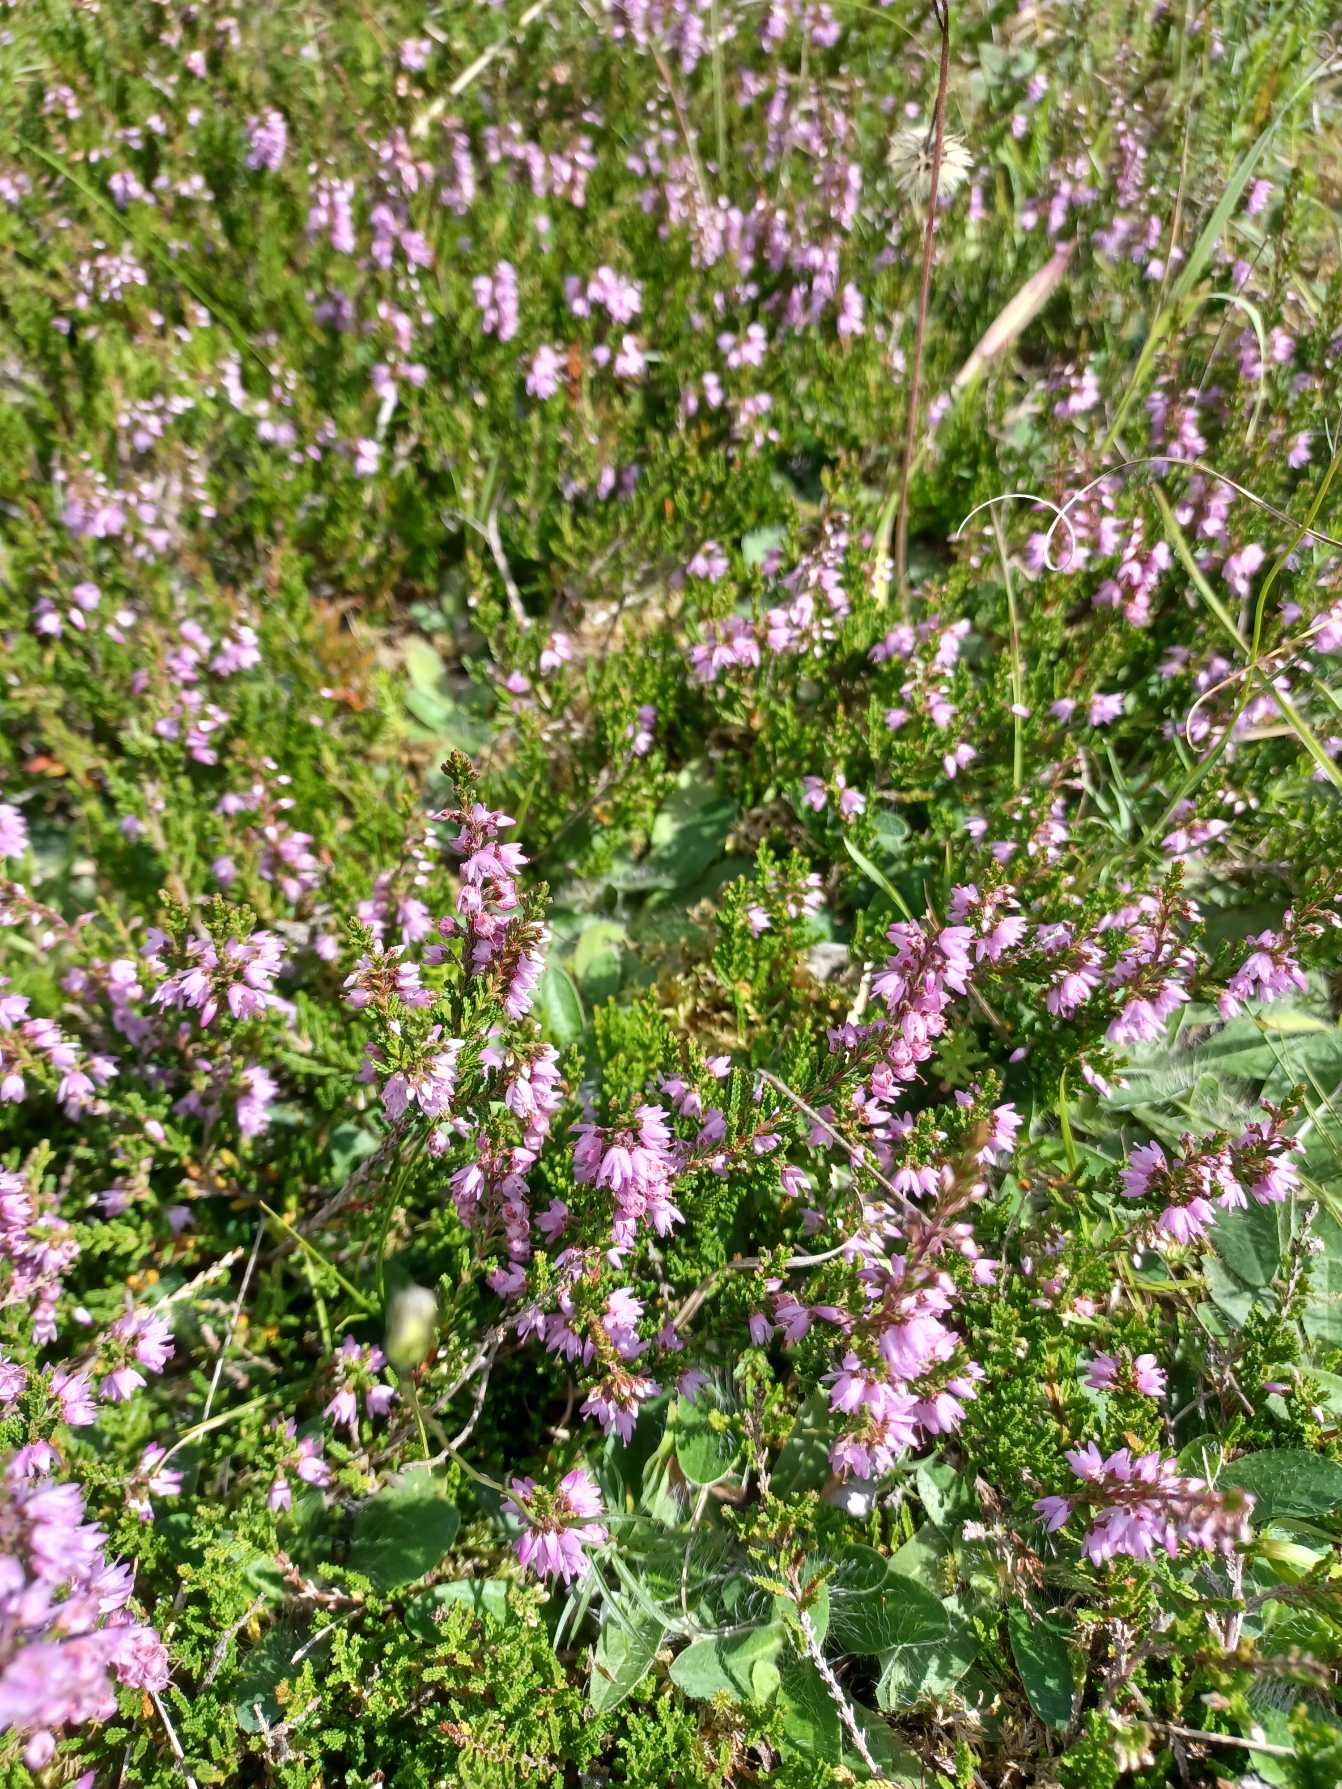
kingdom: Plantae
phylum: Tracheophyta
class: Magnoliopsida
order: Ericales
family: Ericaceae
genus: Calluna
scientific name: Calluna vulgaris
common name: Hedelyng
